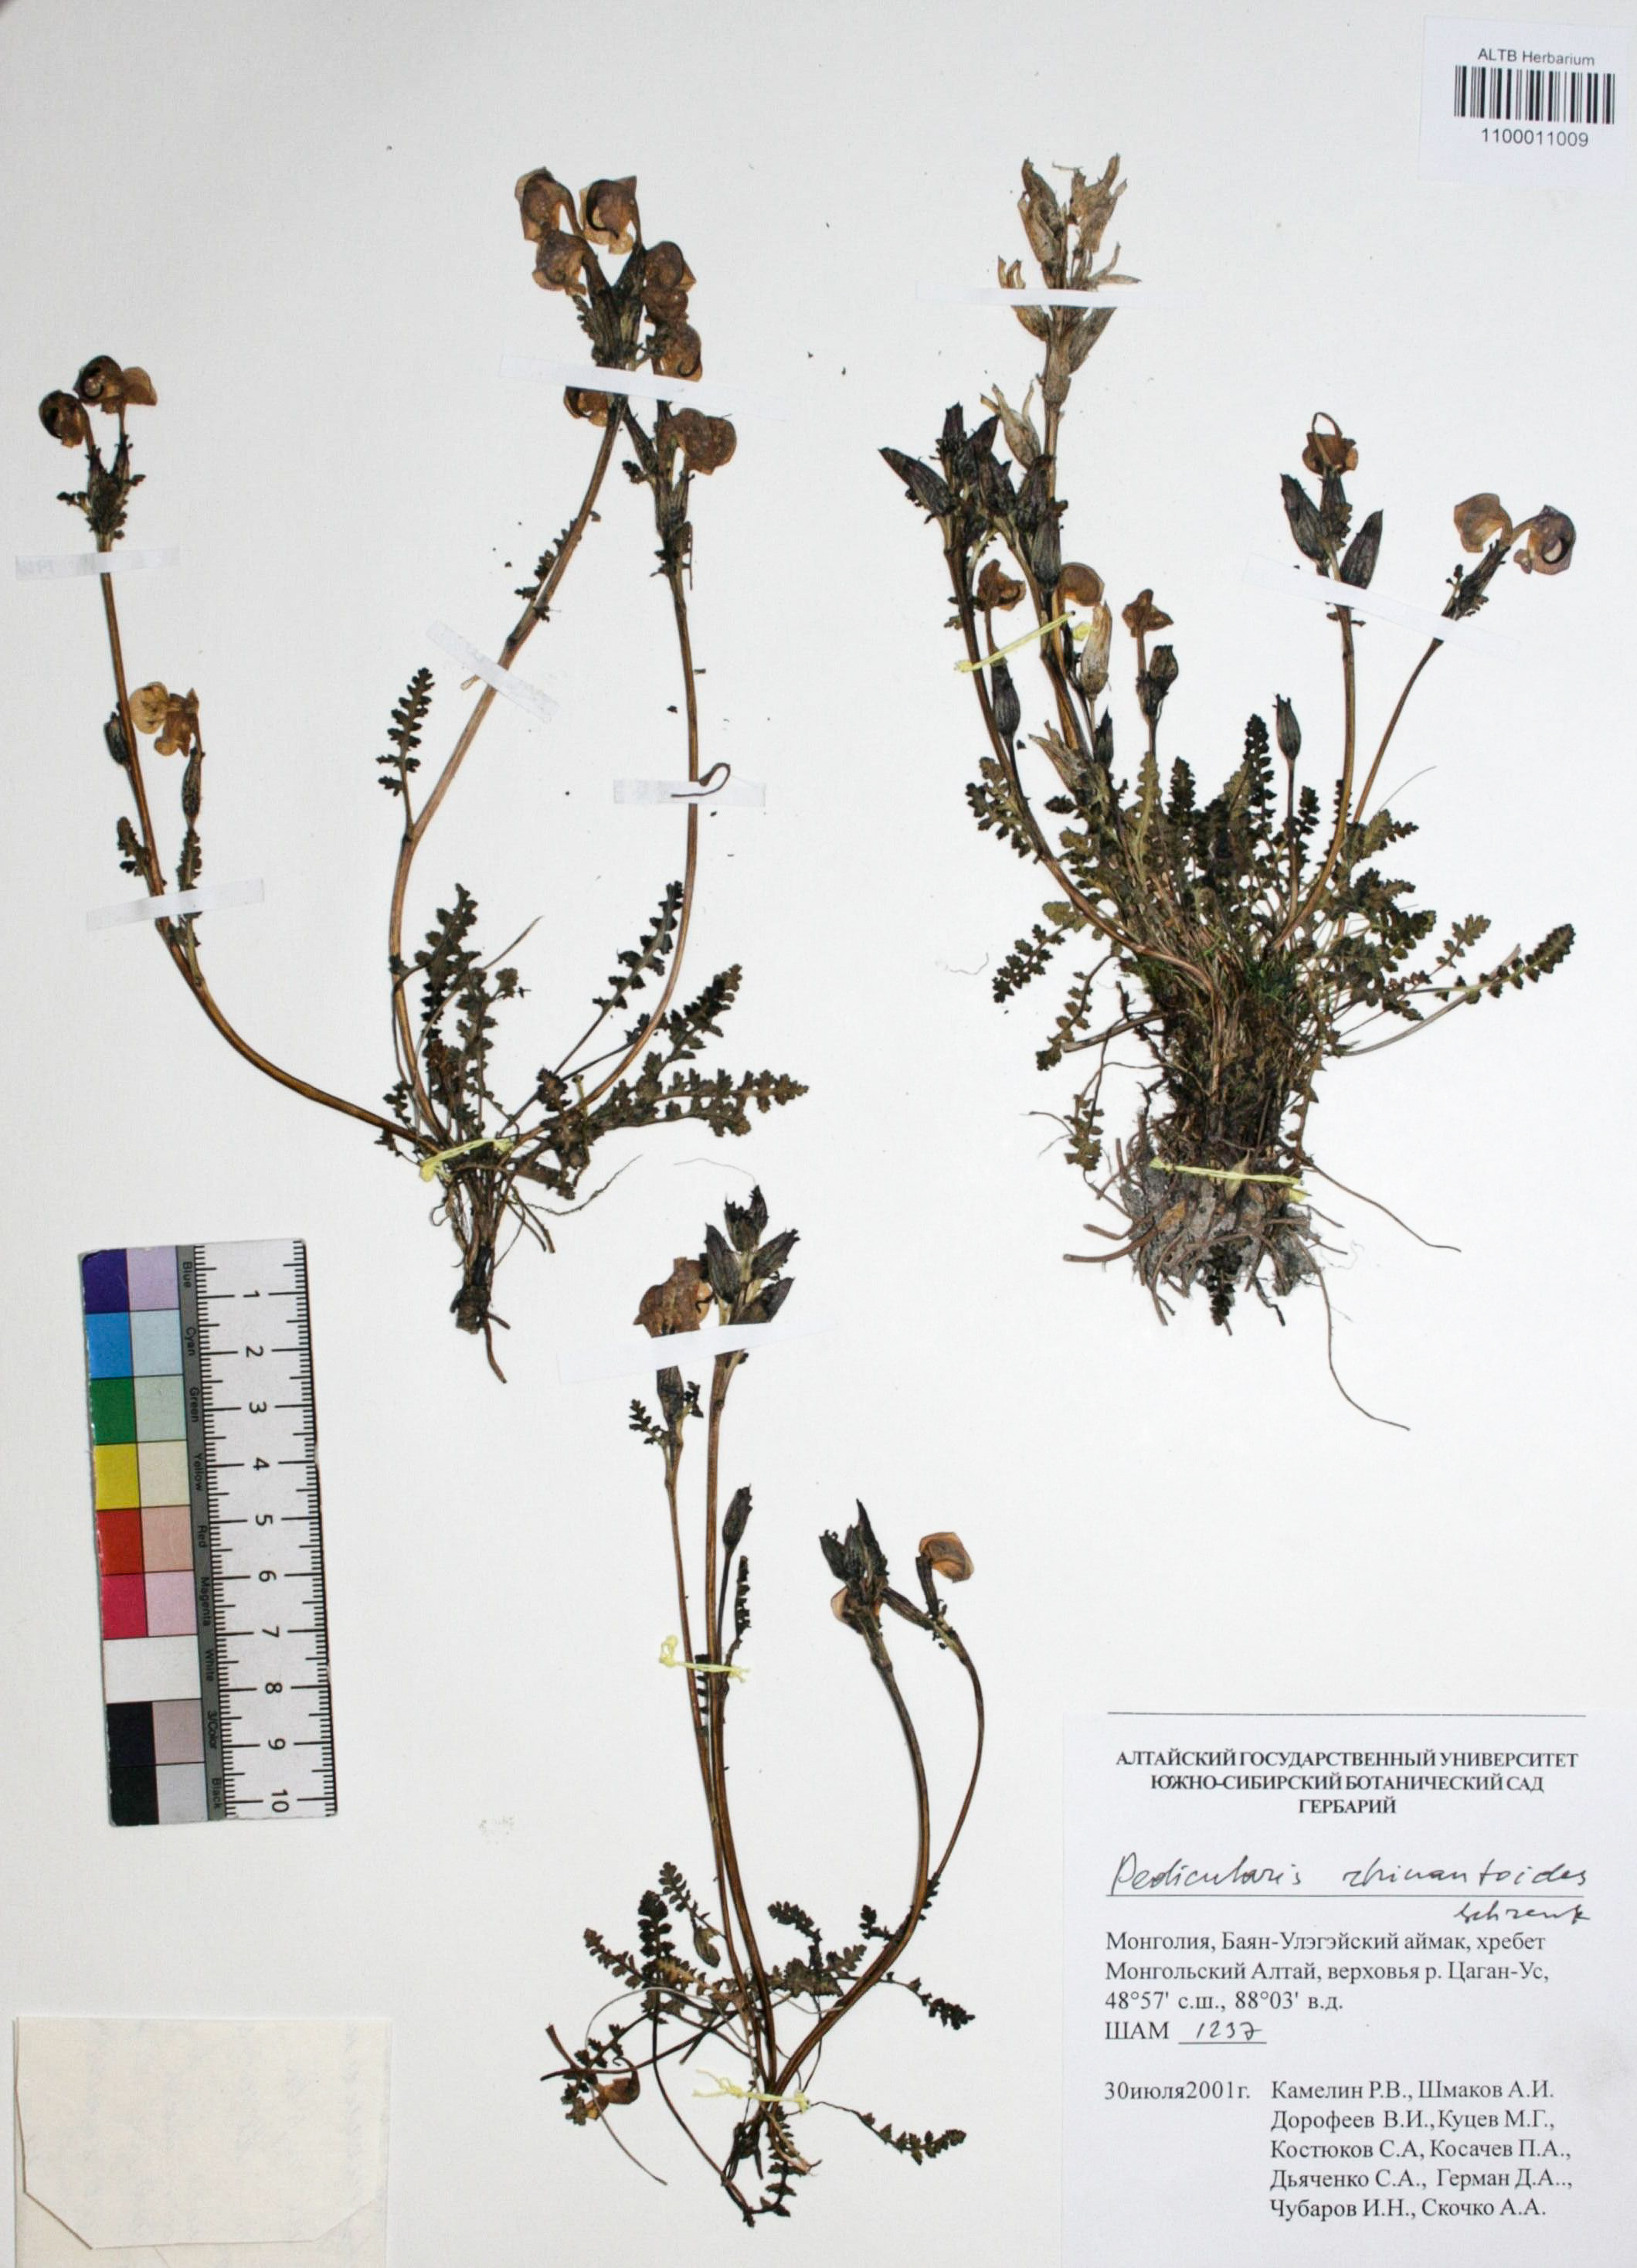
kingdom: Plantae
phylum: Tracheophyta
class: Magnoliopsida
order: Lamiales
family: Orobanchaceae
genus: Pedicularis
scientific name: Pedicularis rhinanthoides
